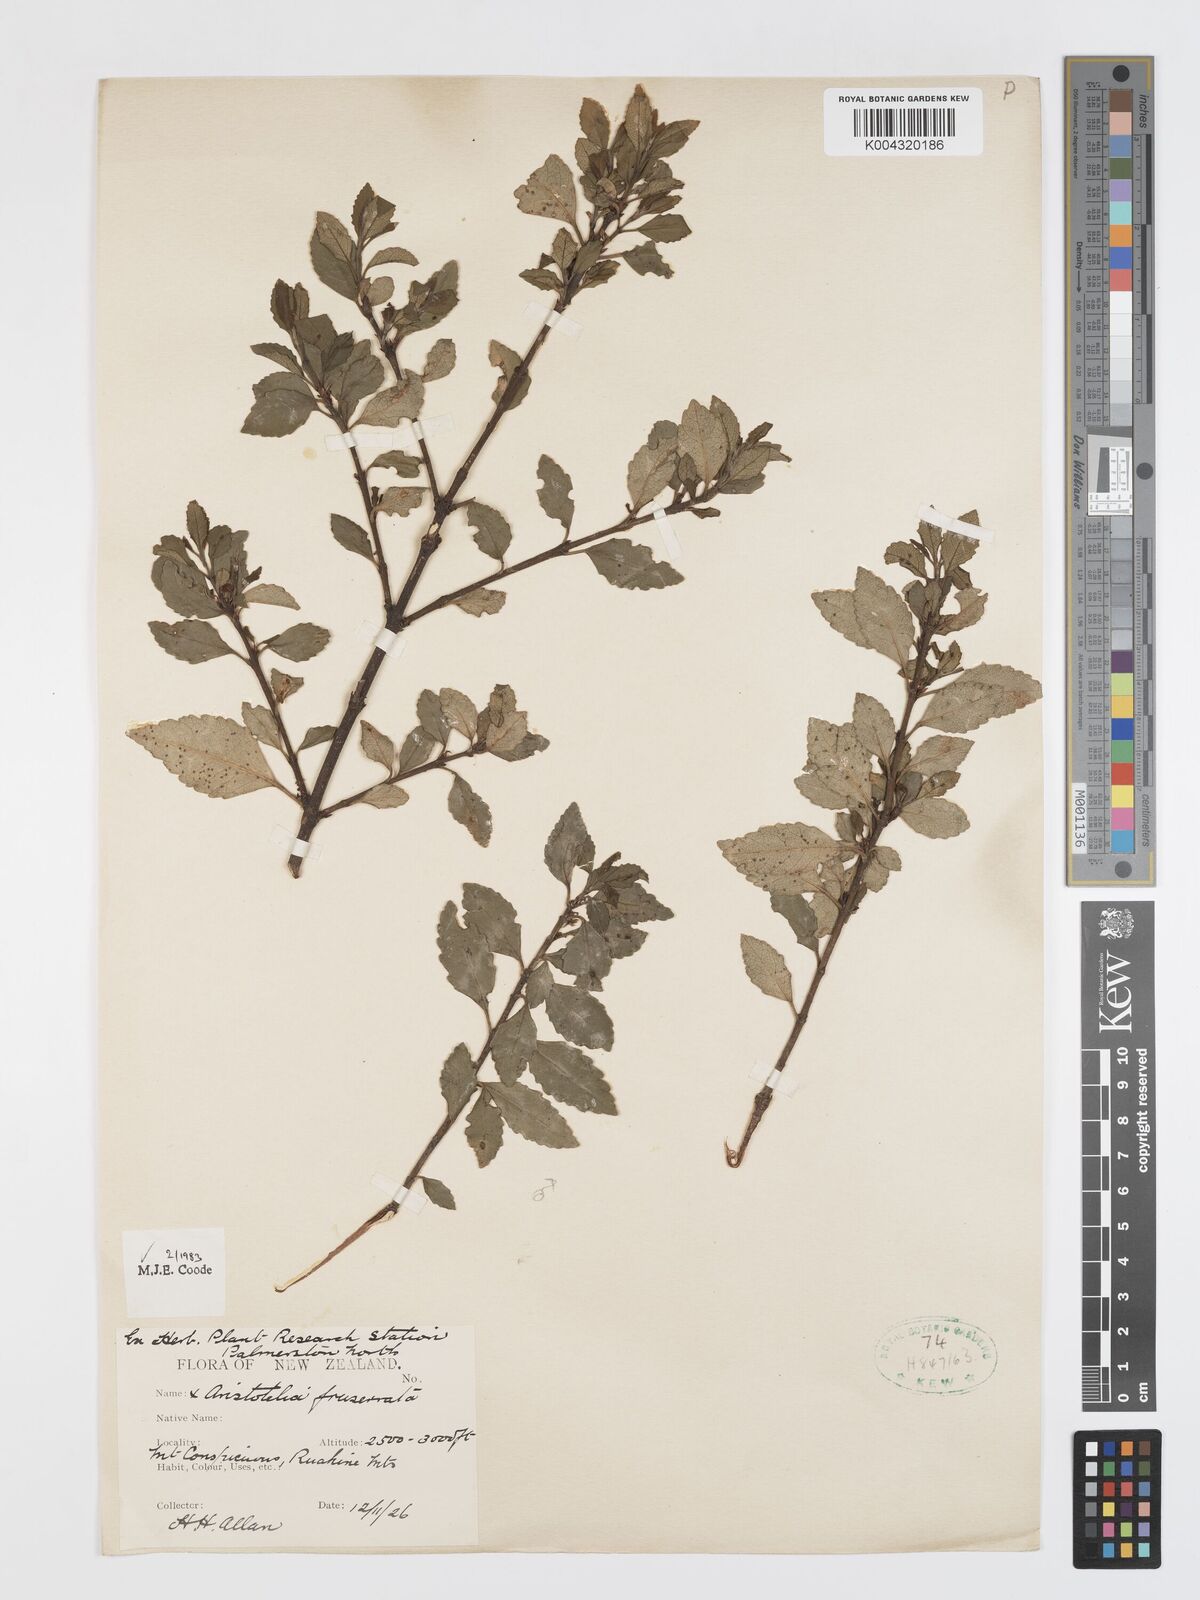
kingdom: Plantae
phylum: Tracheophyta
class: Magnoliopsida
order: Oxalidales
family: Elaeocarpaceae
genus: Aristotelia
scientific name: Aristotelia fruticosa
